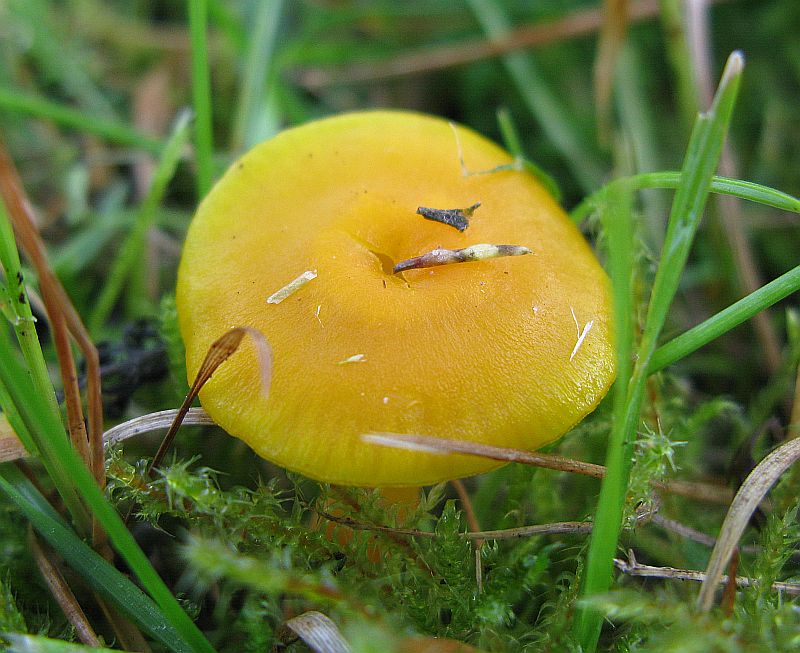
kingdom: Fungi
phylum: Basidiomycota
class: Agaricomycetes
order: Agaricales
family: Hygrophoraceae
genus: Hygrocybe
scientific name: Hygrocybe ceracea
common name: voksgul vokshat
